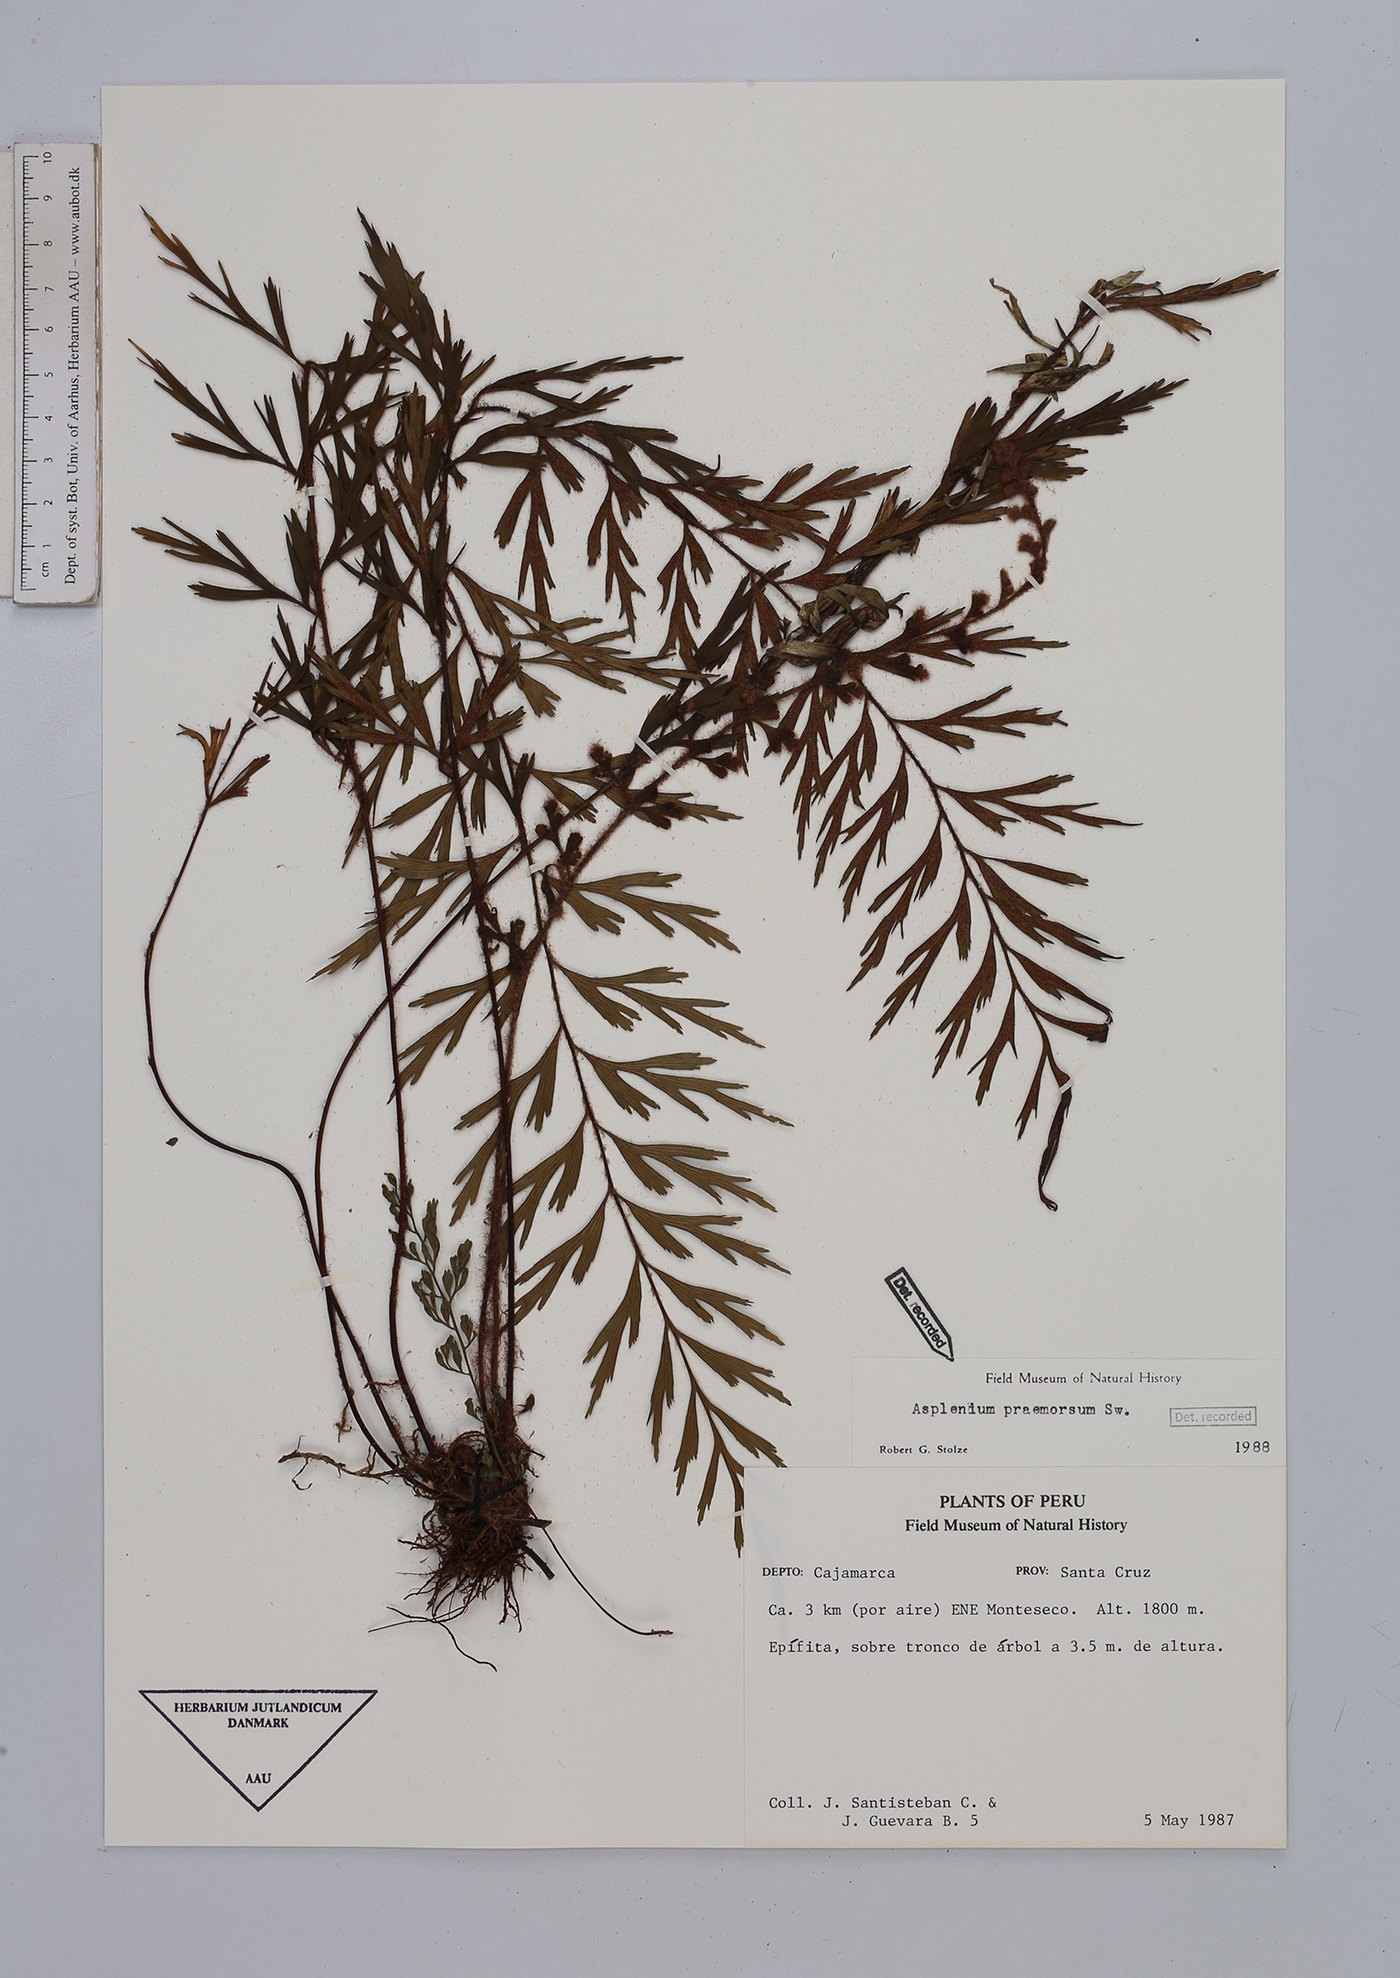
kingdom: Plantae
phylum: Tracheophyta
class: Polypodiopsida
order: Polypodiales
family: Aspleniaceae
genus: Asplenium
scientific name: Asplenium praemorsum
